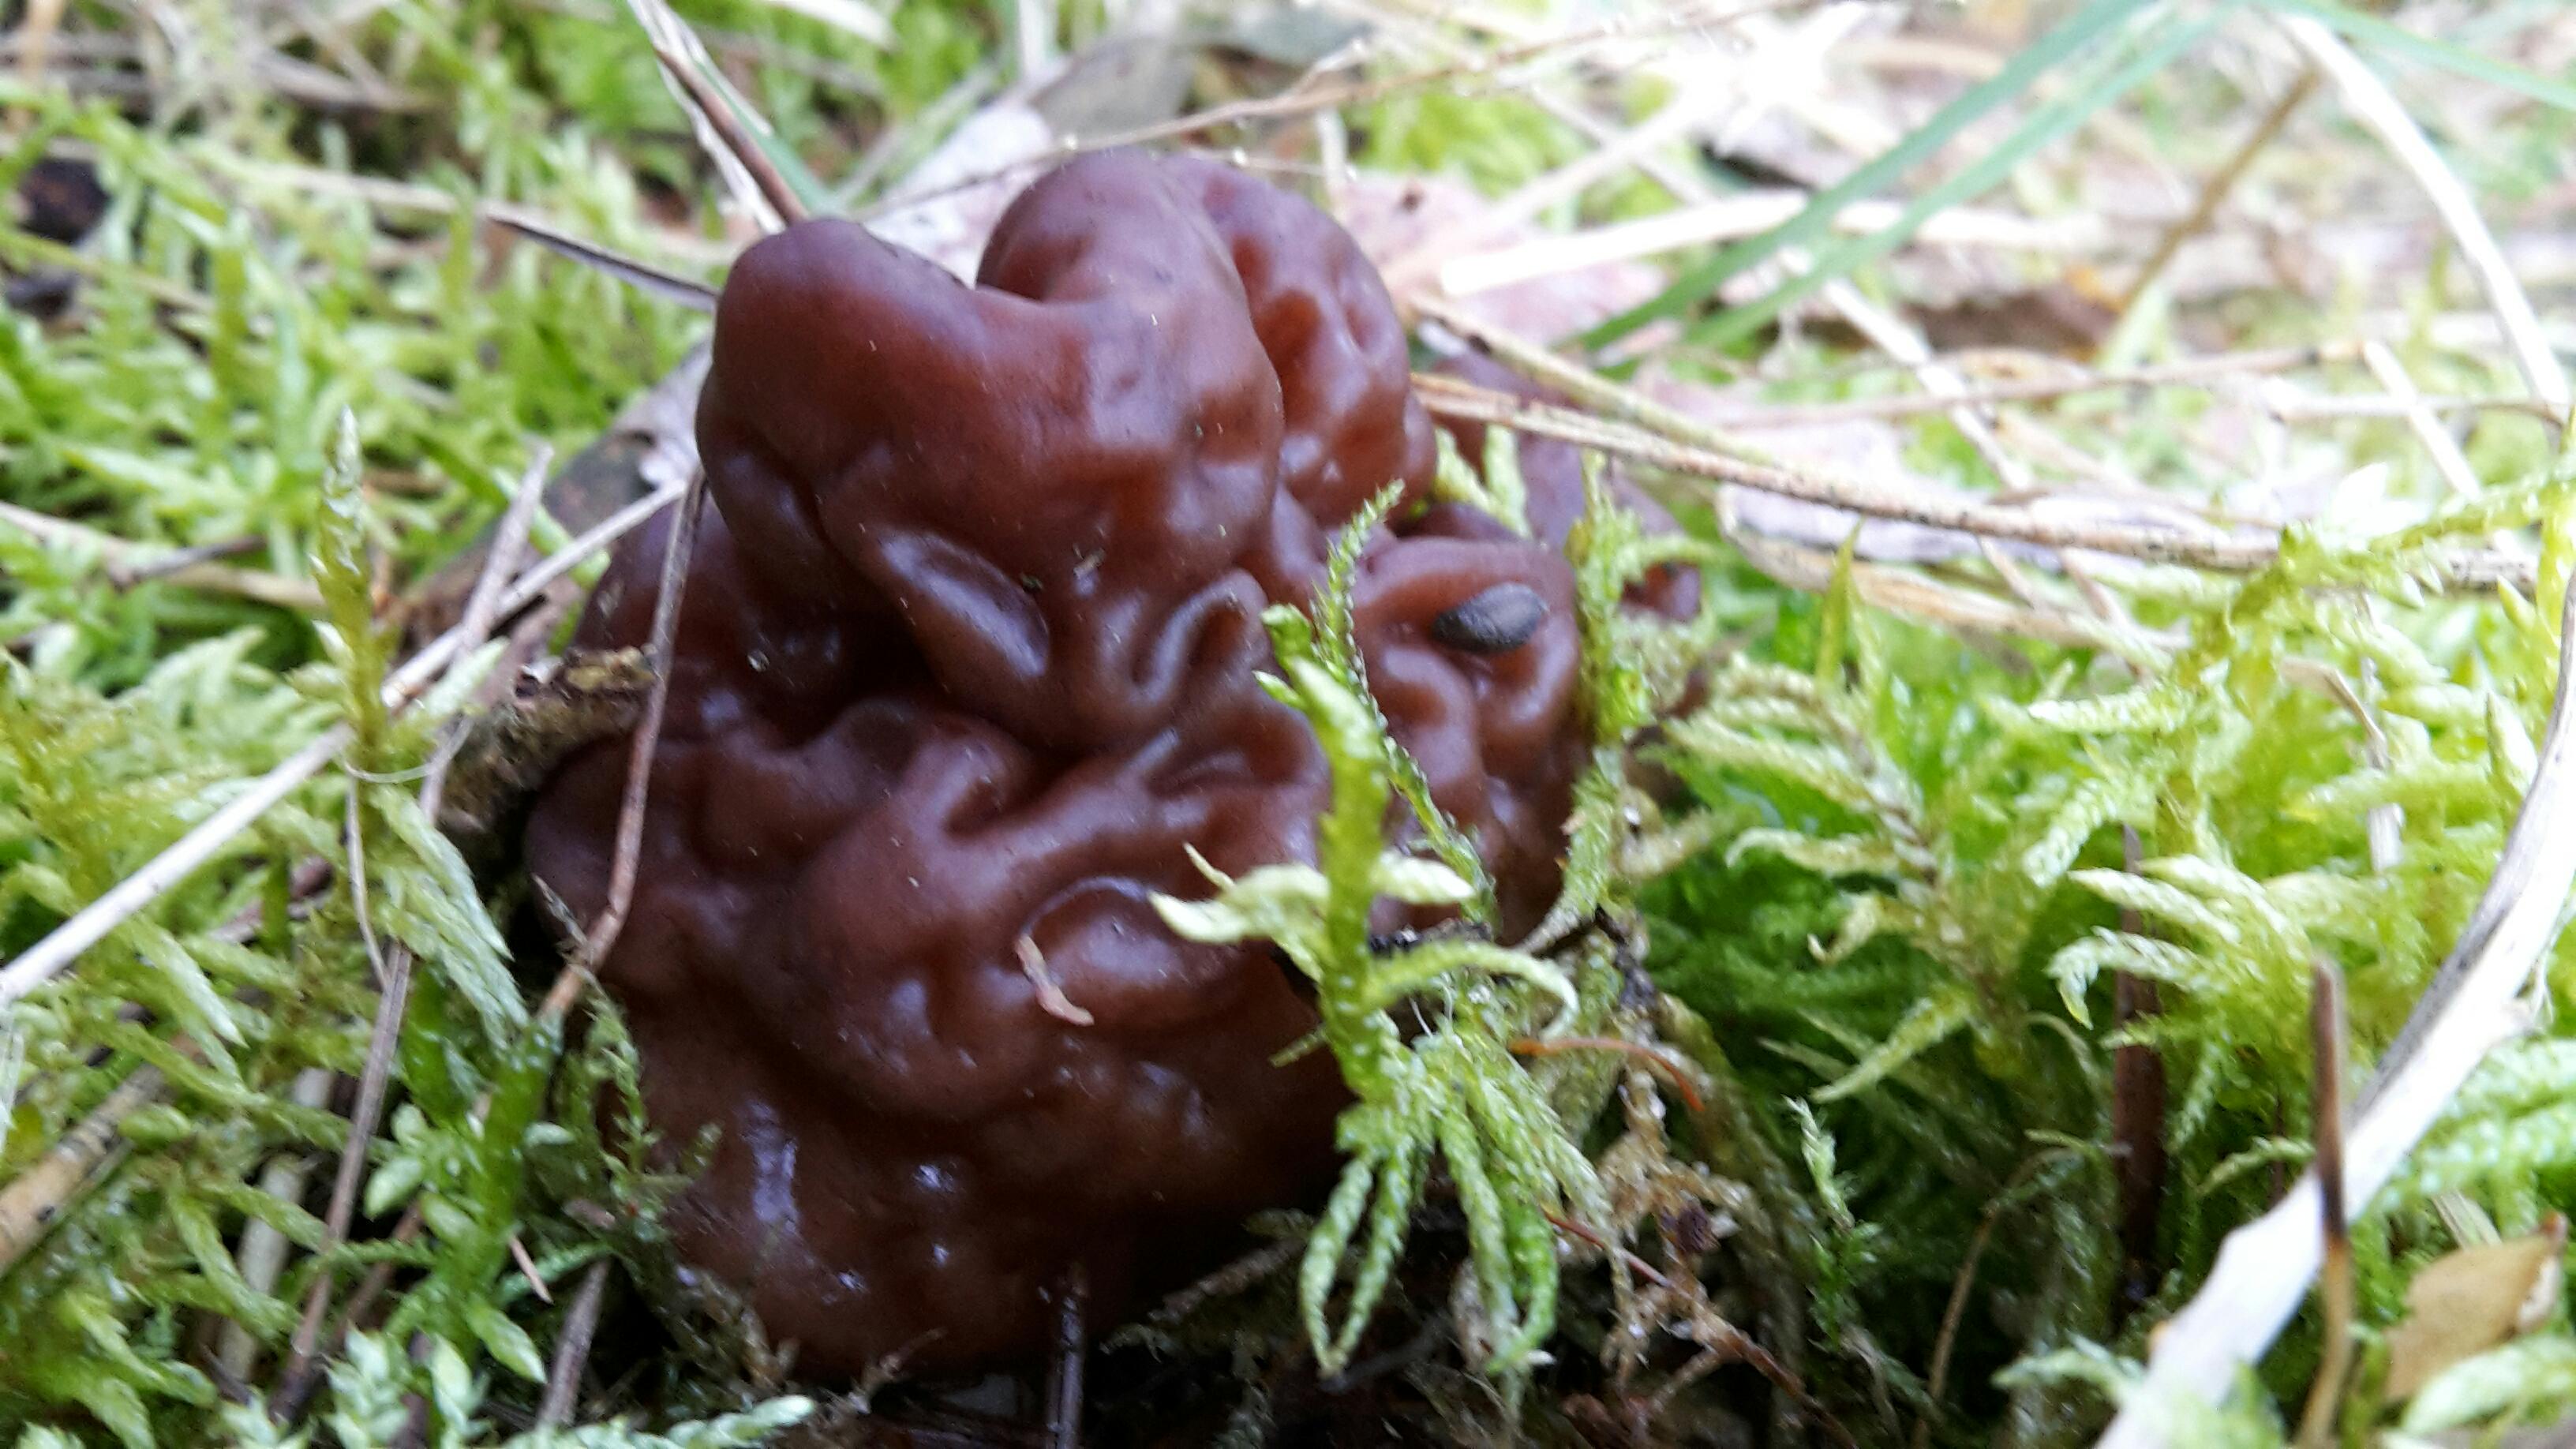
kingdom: Fungi
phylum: Ascomycota
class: Pezizomycetes
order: Pezizales
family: Discinaceae
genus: Gyromitra
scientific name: Gyromitra esculenta
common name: ægte stenmorkel
